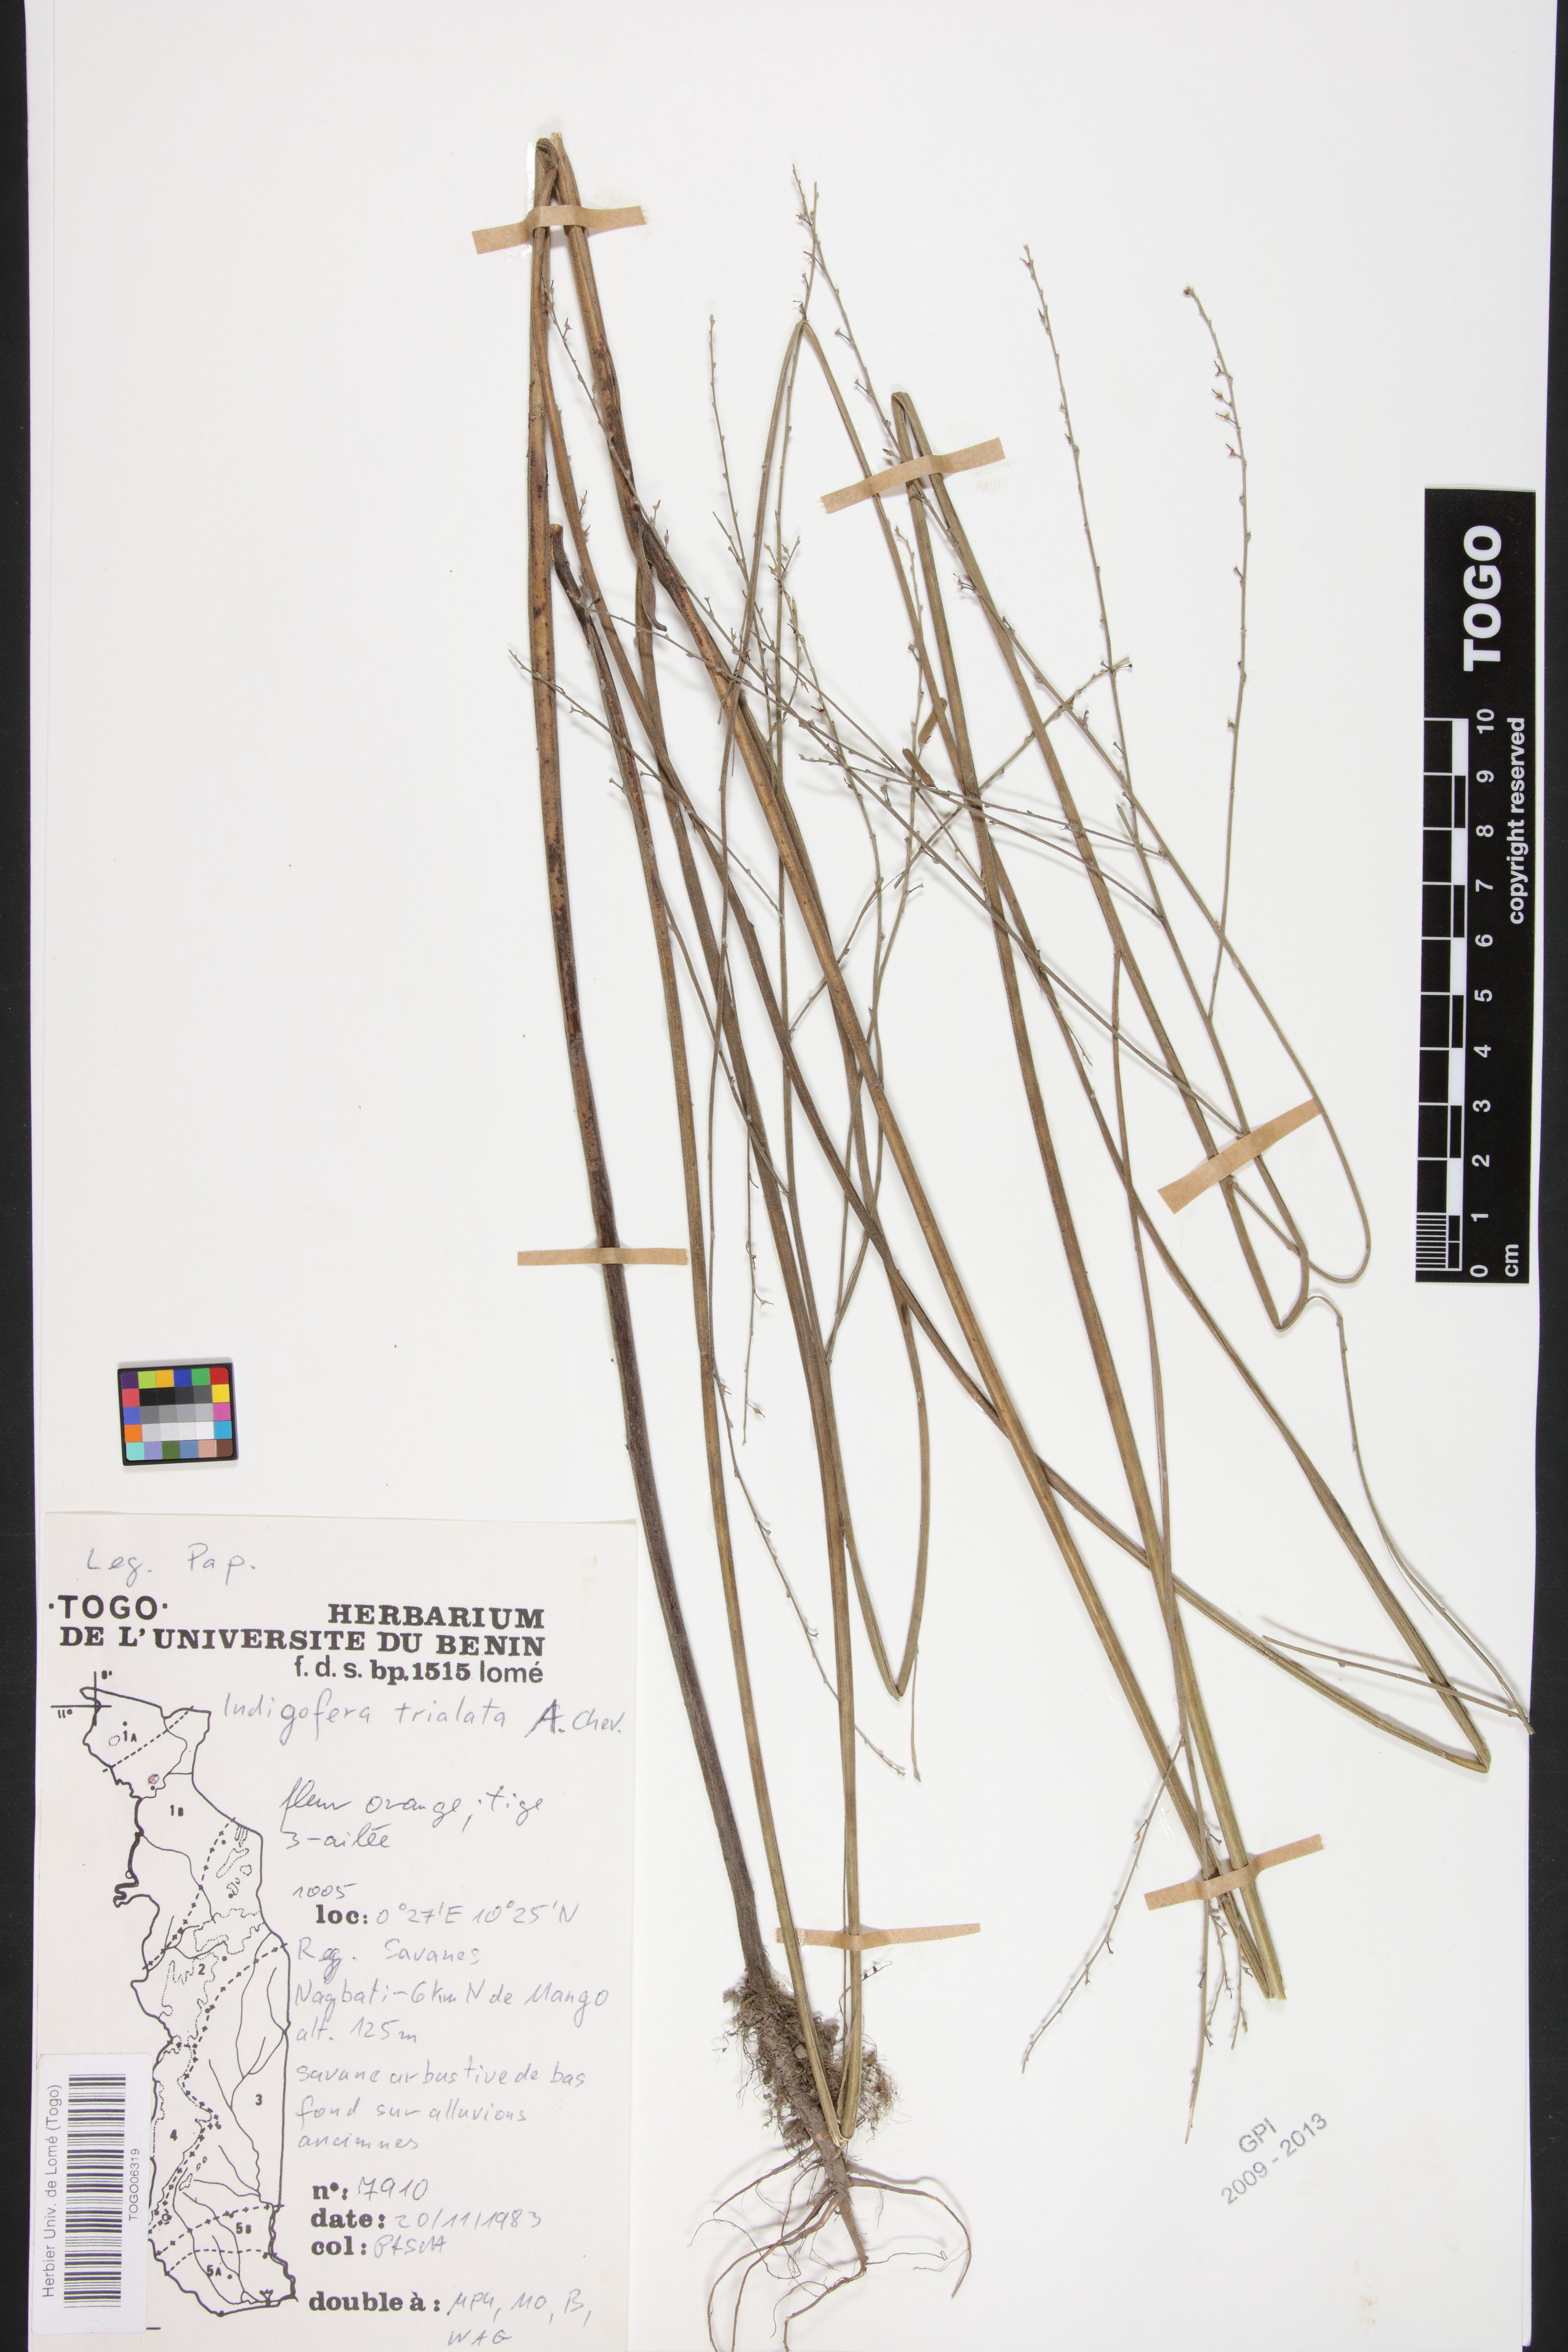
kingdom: Plantae
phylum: Tracheophyta
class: Magnoliopsida
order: Fabales
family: Fabaceae
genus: Indigofera
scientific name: Indigofera trialata
